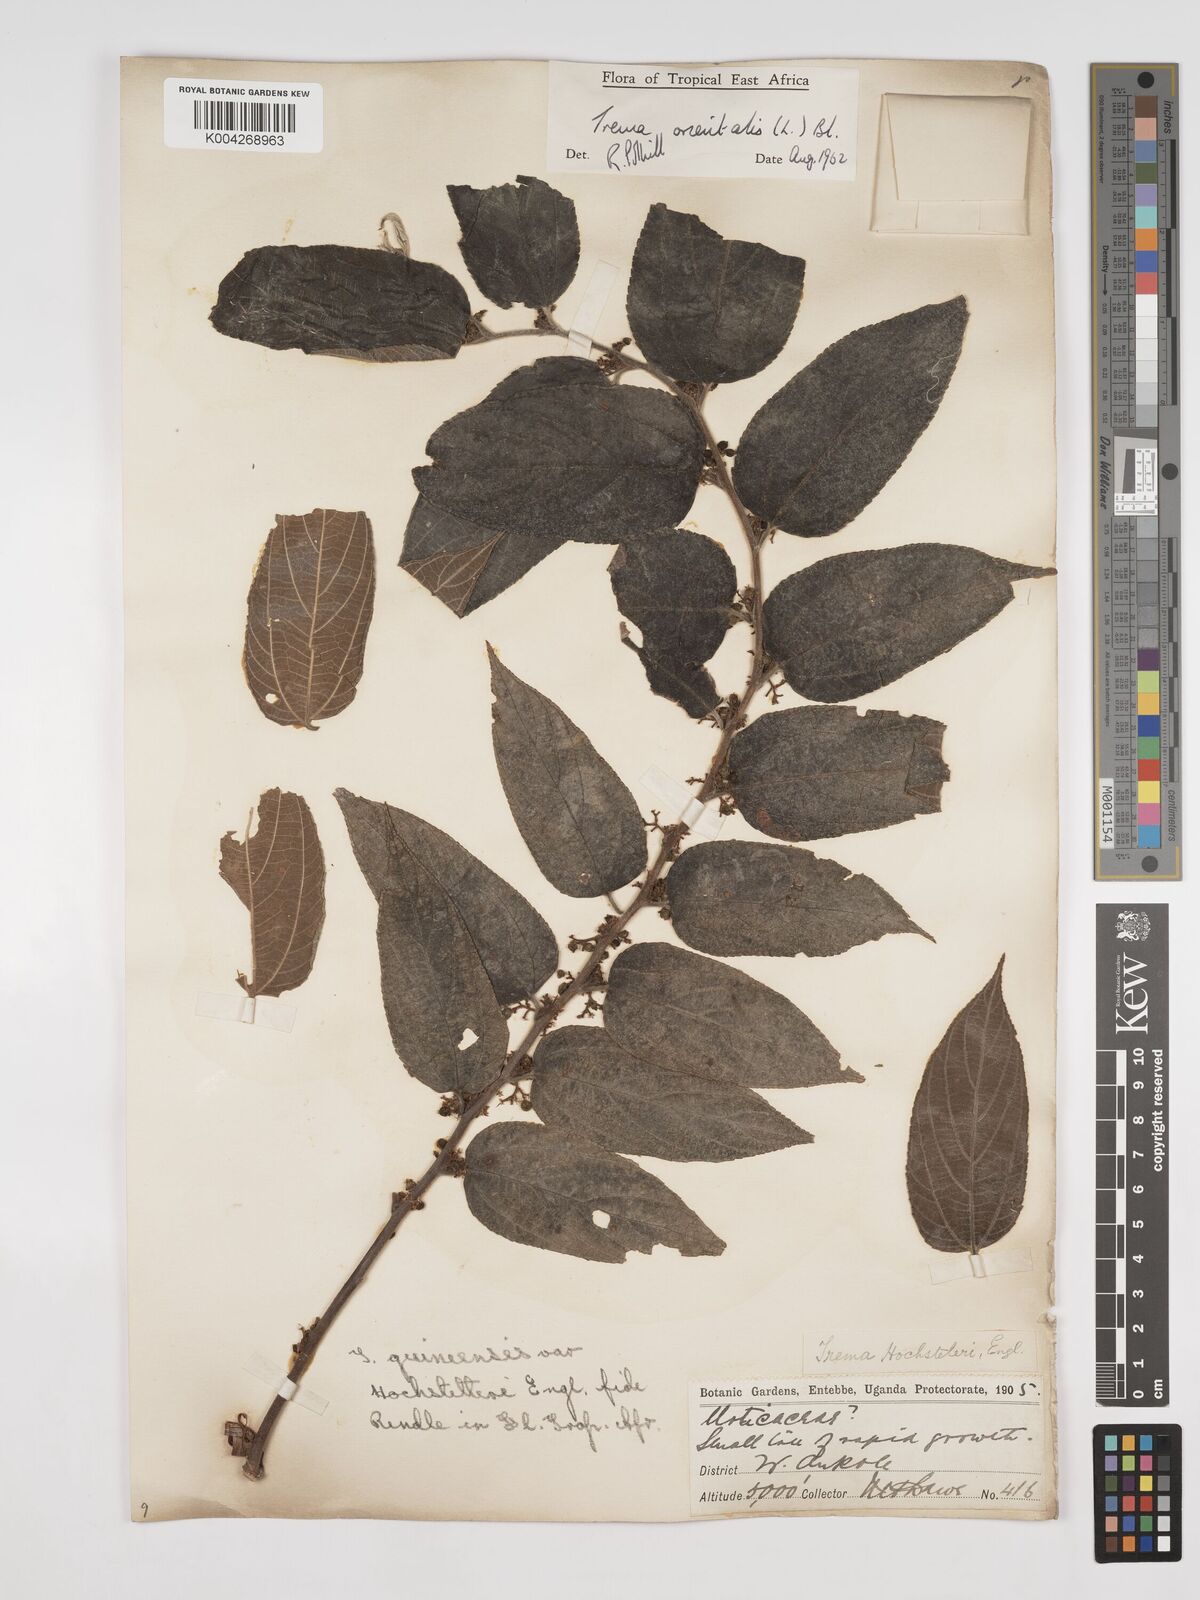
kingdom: Plantae
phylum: Tracheophyta
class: Magnoliopsida
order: Rosales
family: Cannabaceae
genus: Trema
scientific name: Trema orientale
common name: Indian charcoal tree
